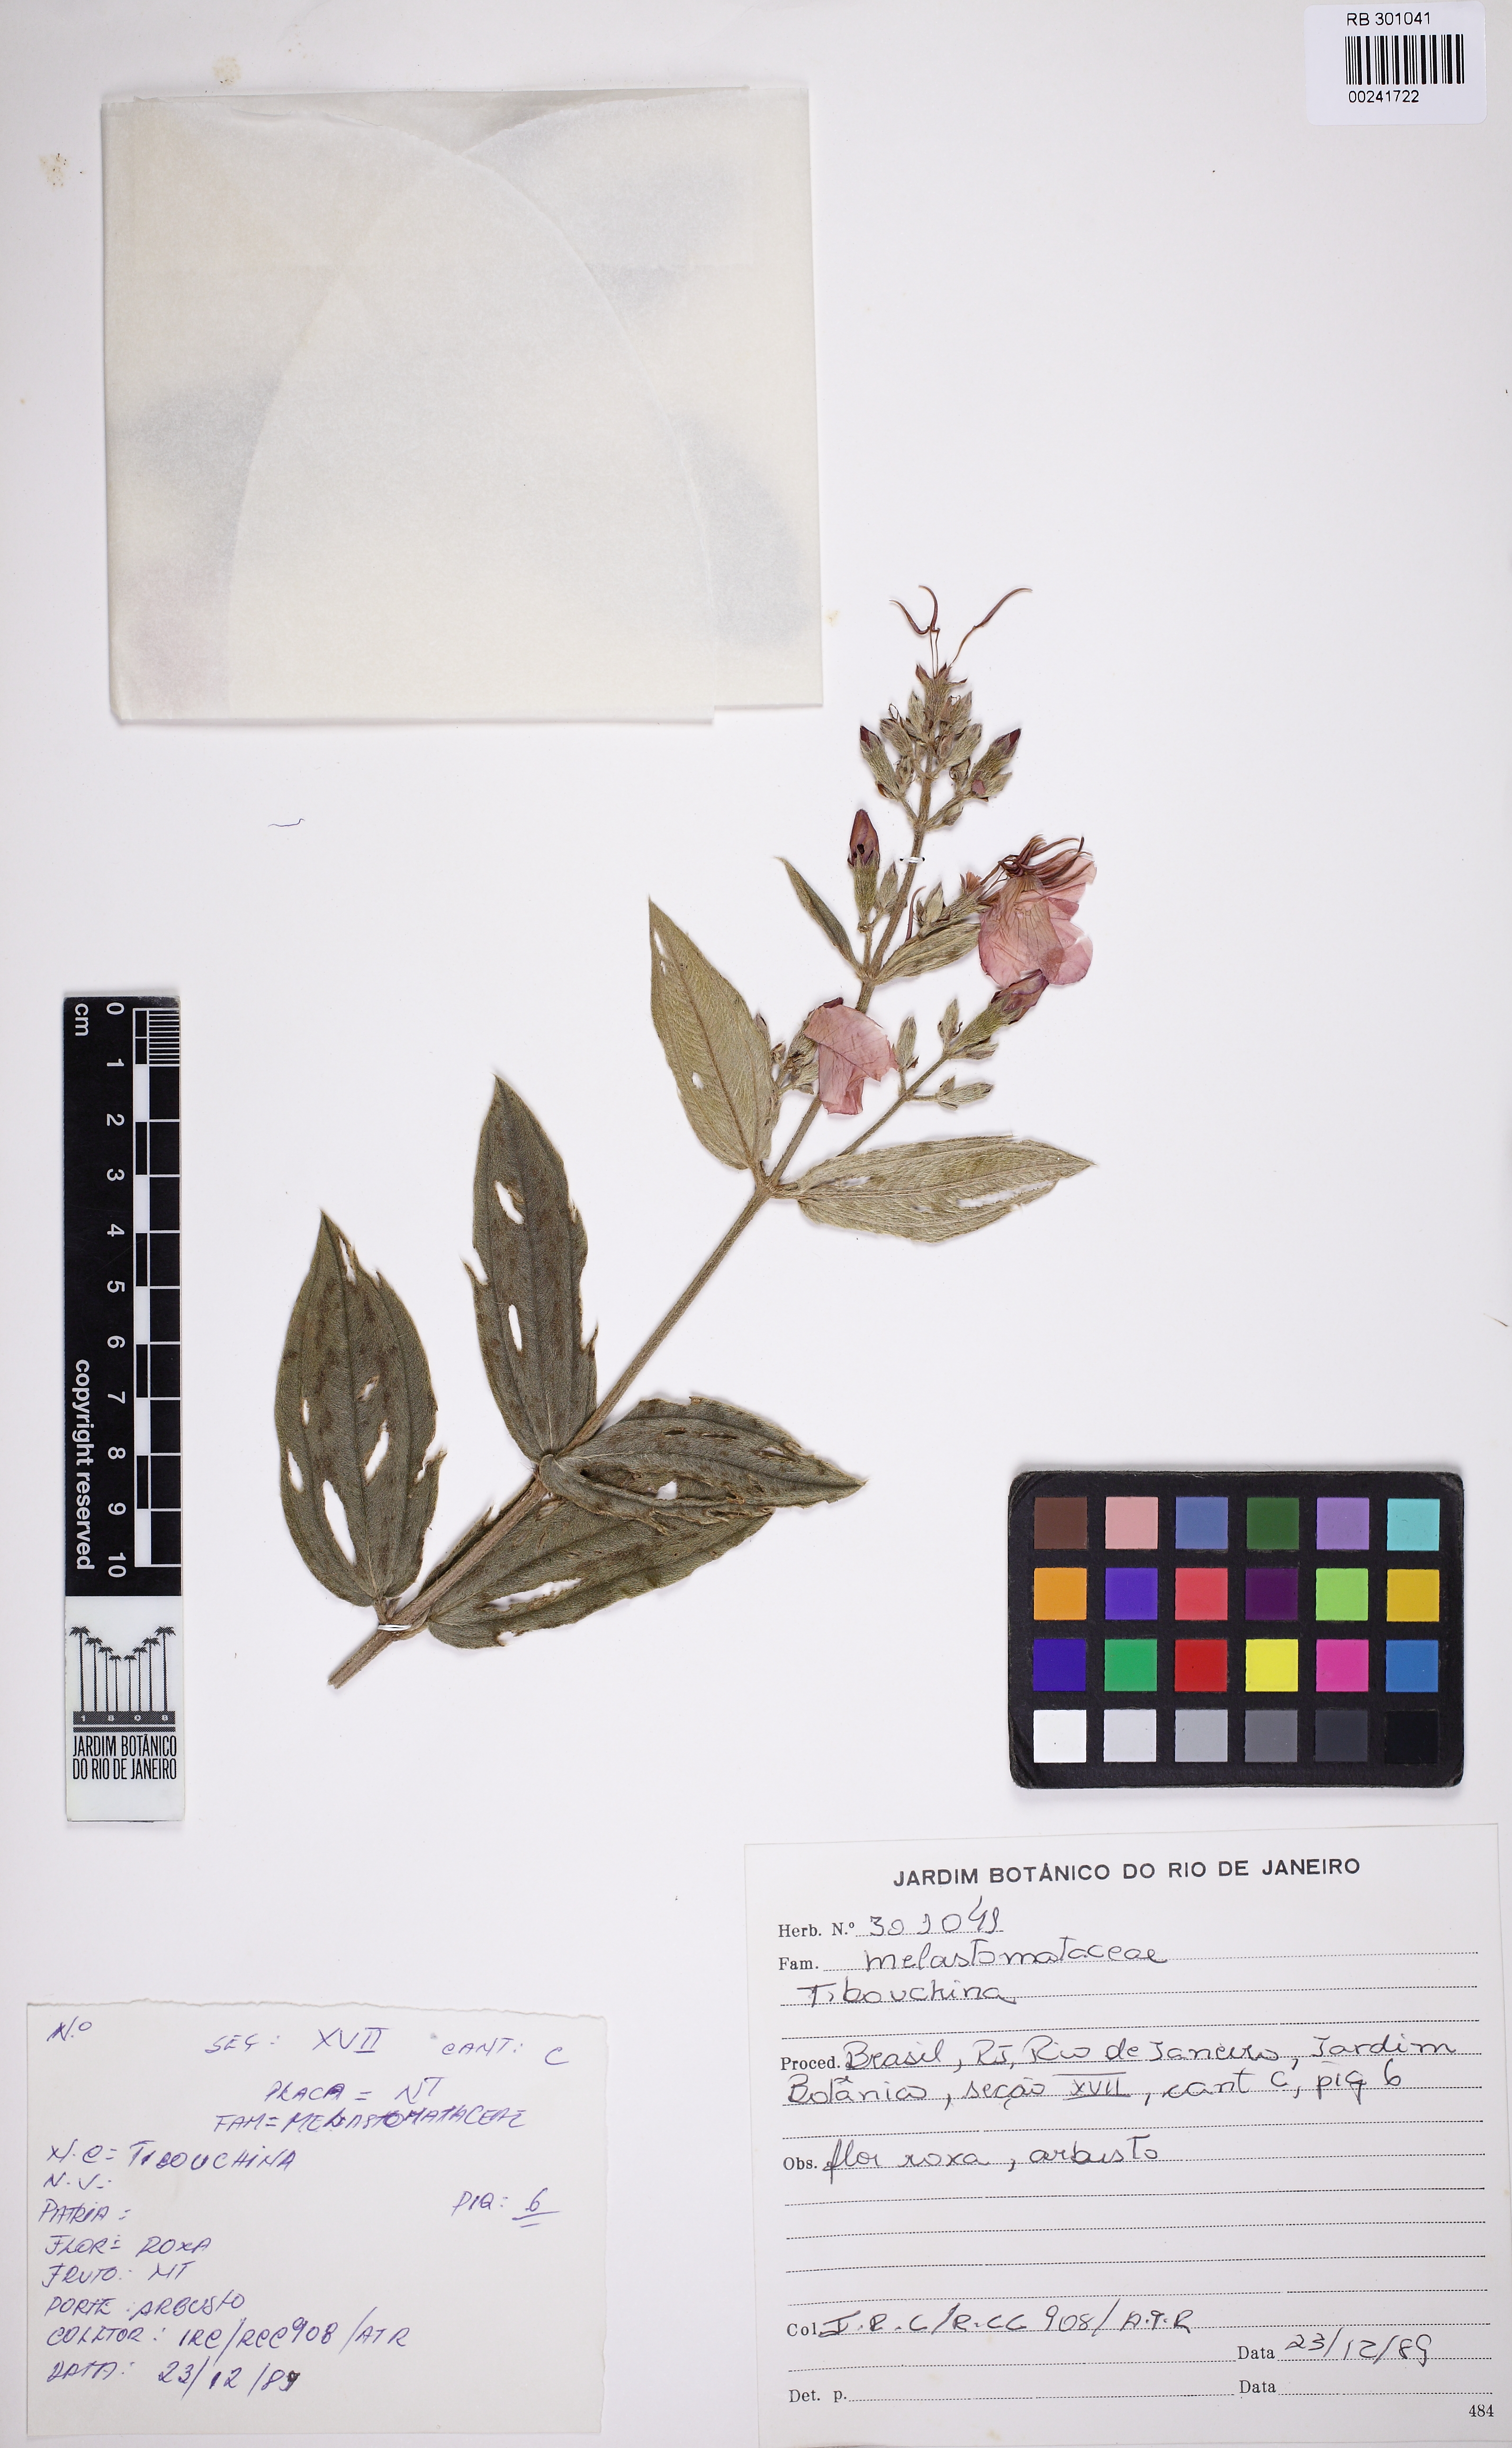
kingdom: Plantae
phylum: Tracheophyta
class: Magnoliopsida
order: Myrtales
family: Melastomataceae
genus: Pleroma
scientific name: Pleroma mutabile
